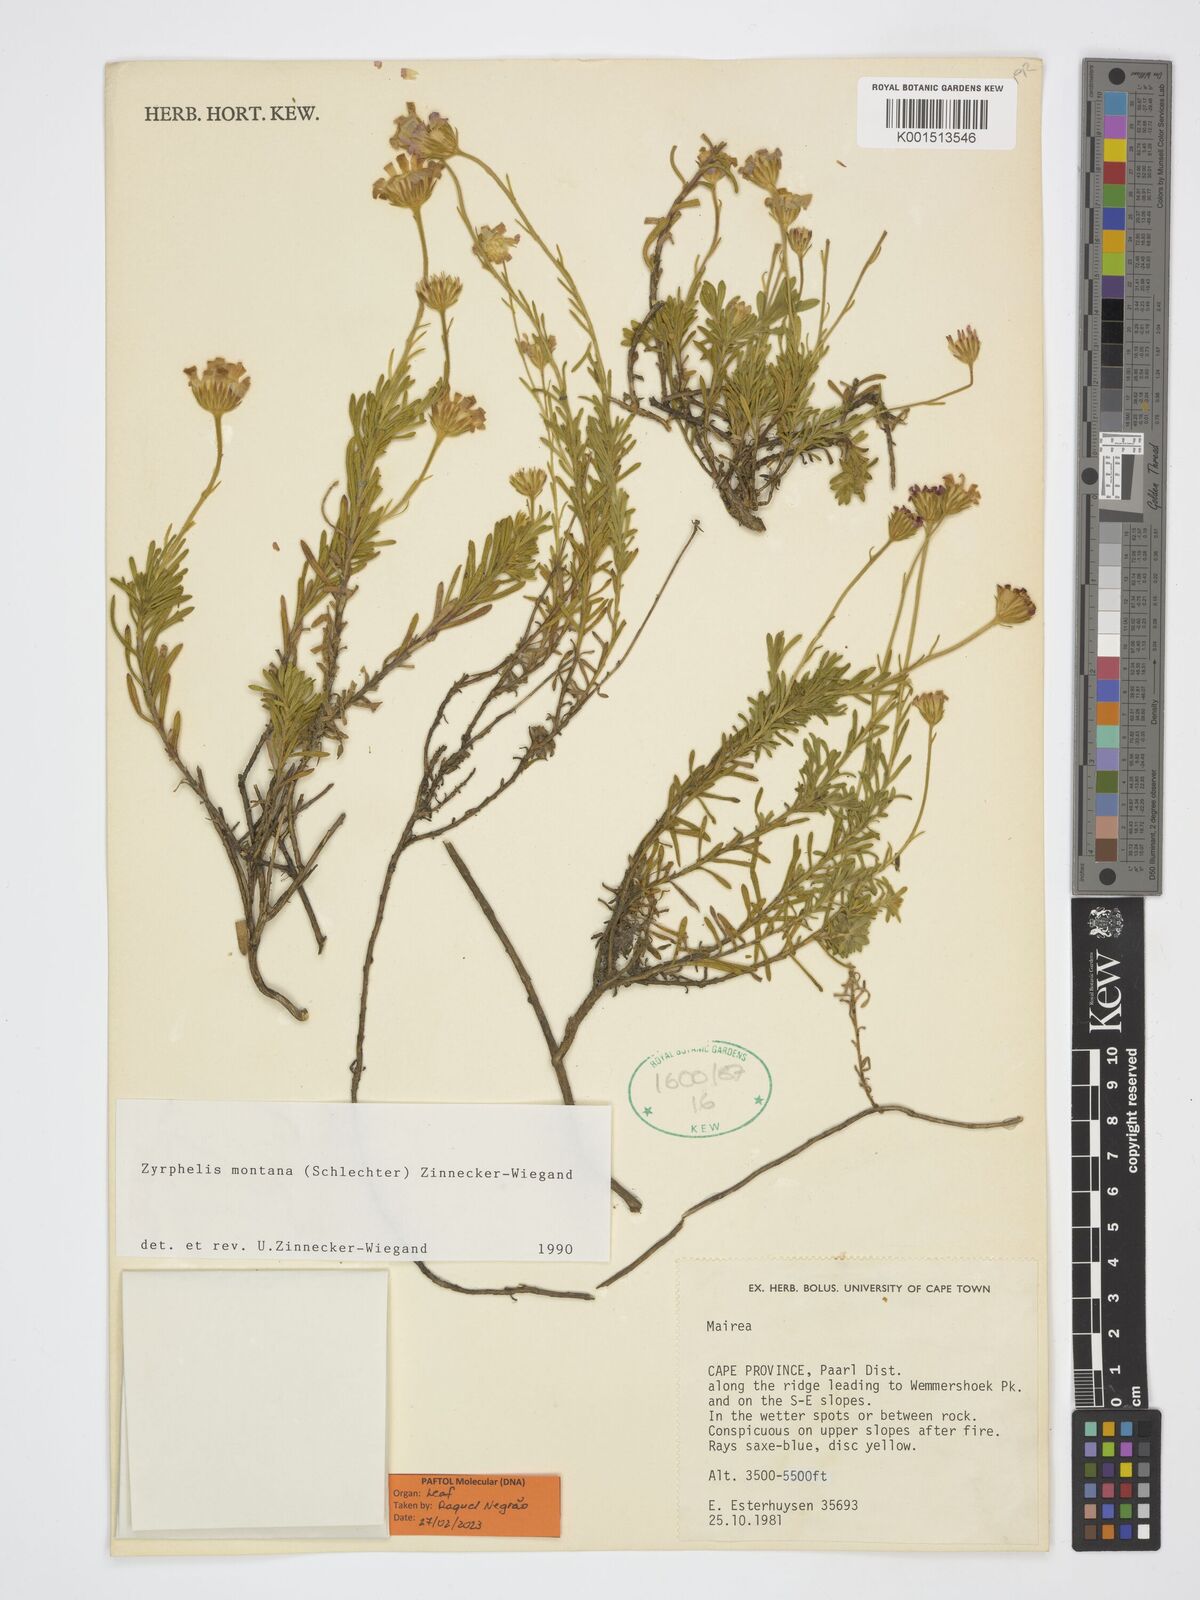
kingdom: Plantae
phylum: Tracheophyta
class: Magnoliopsida
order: Asterales
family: Asteraceae
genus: Zyrphelis
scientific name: Zyrphelis montana
